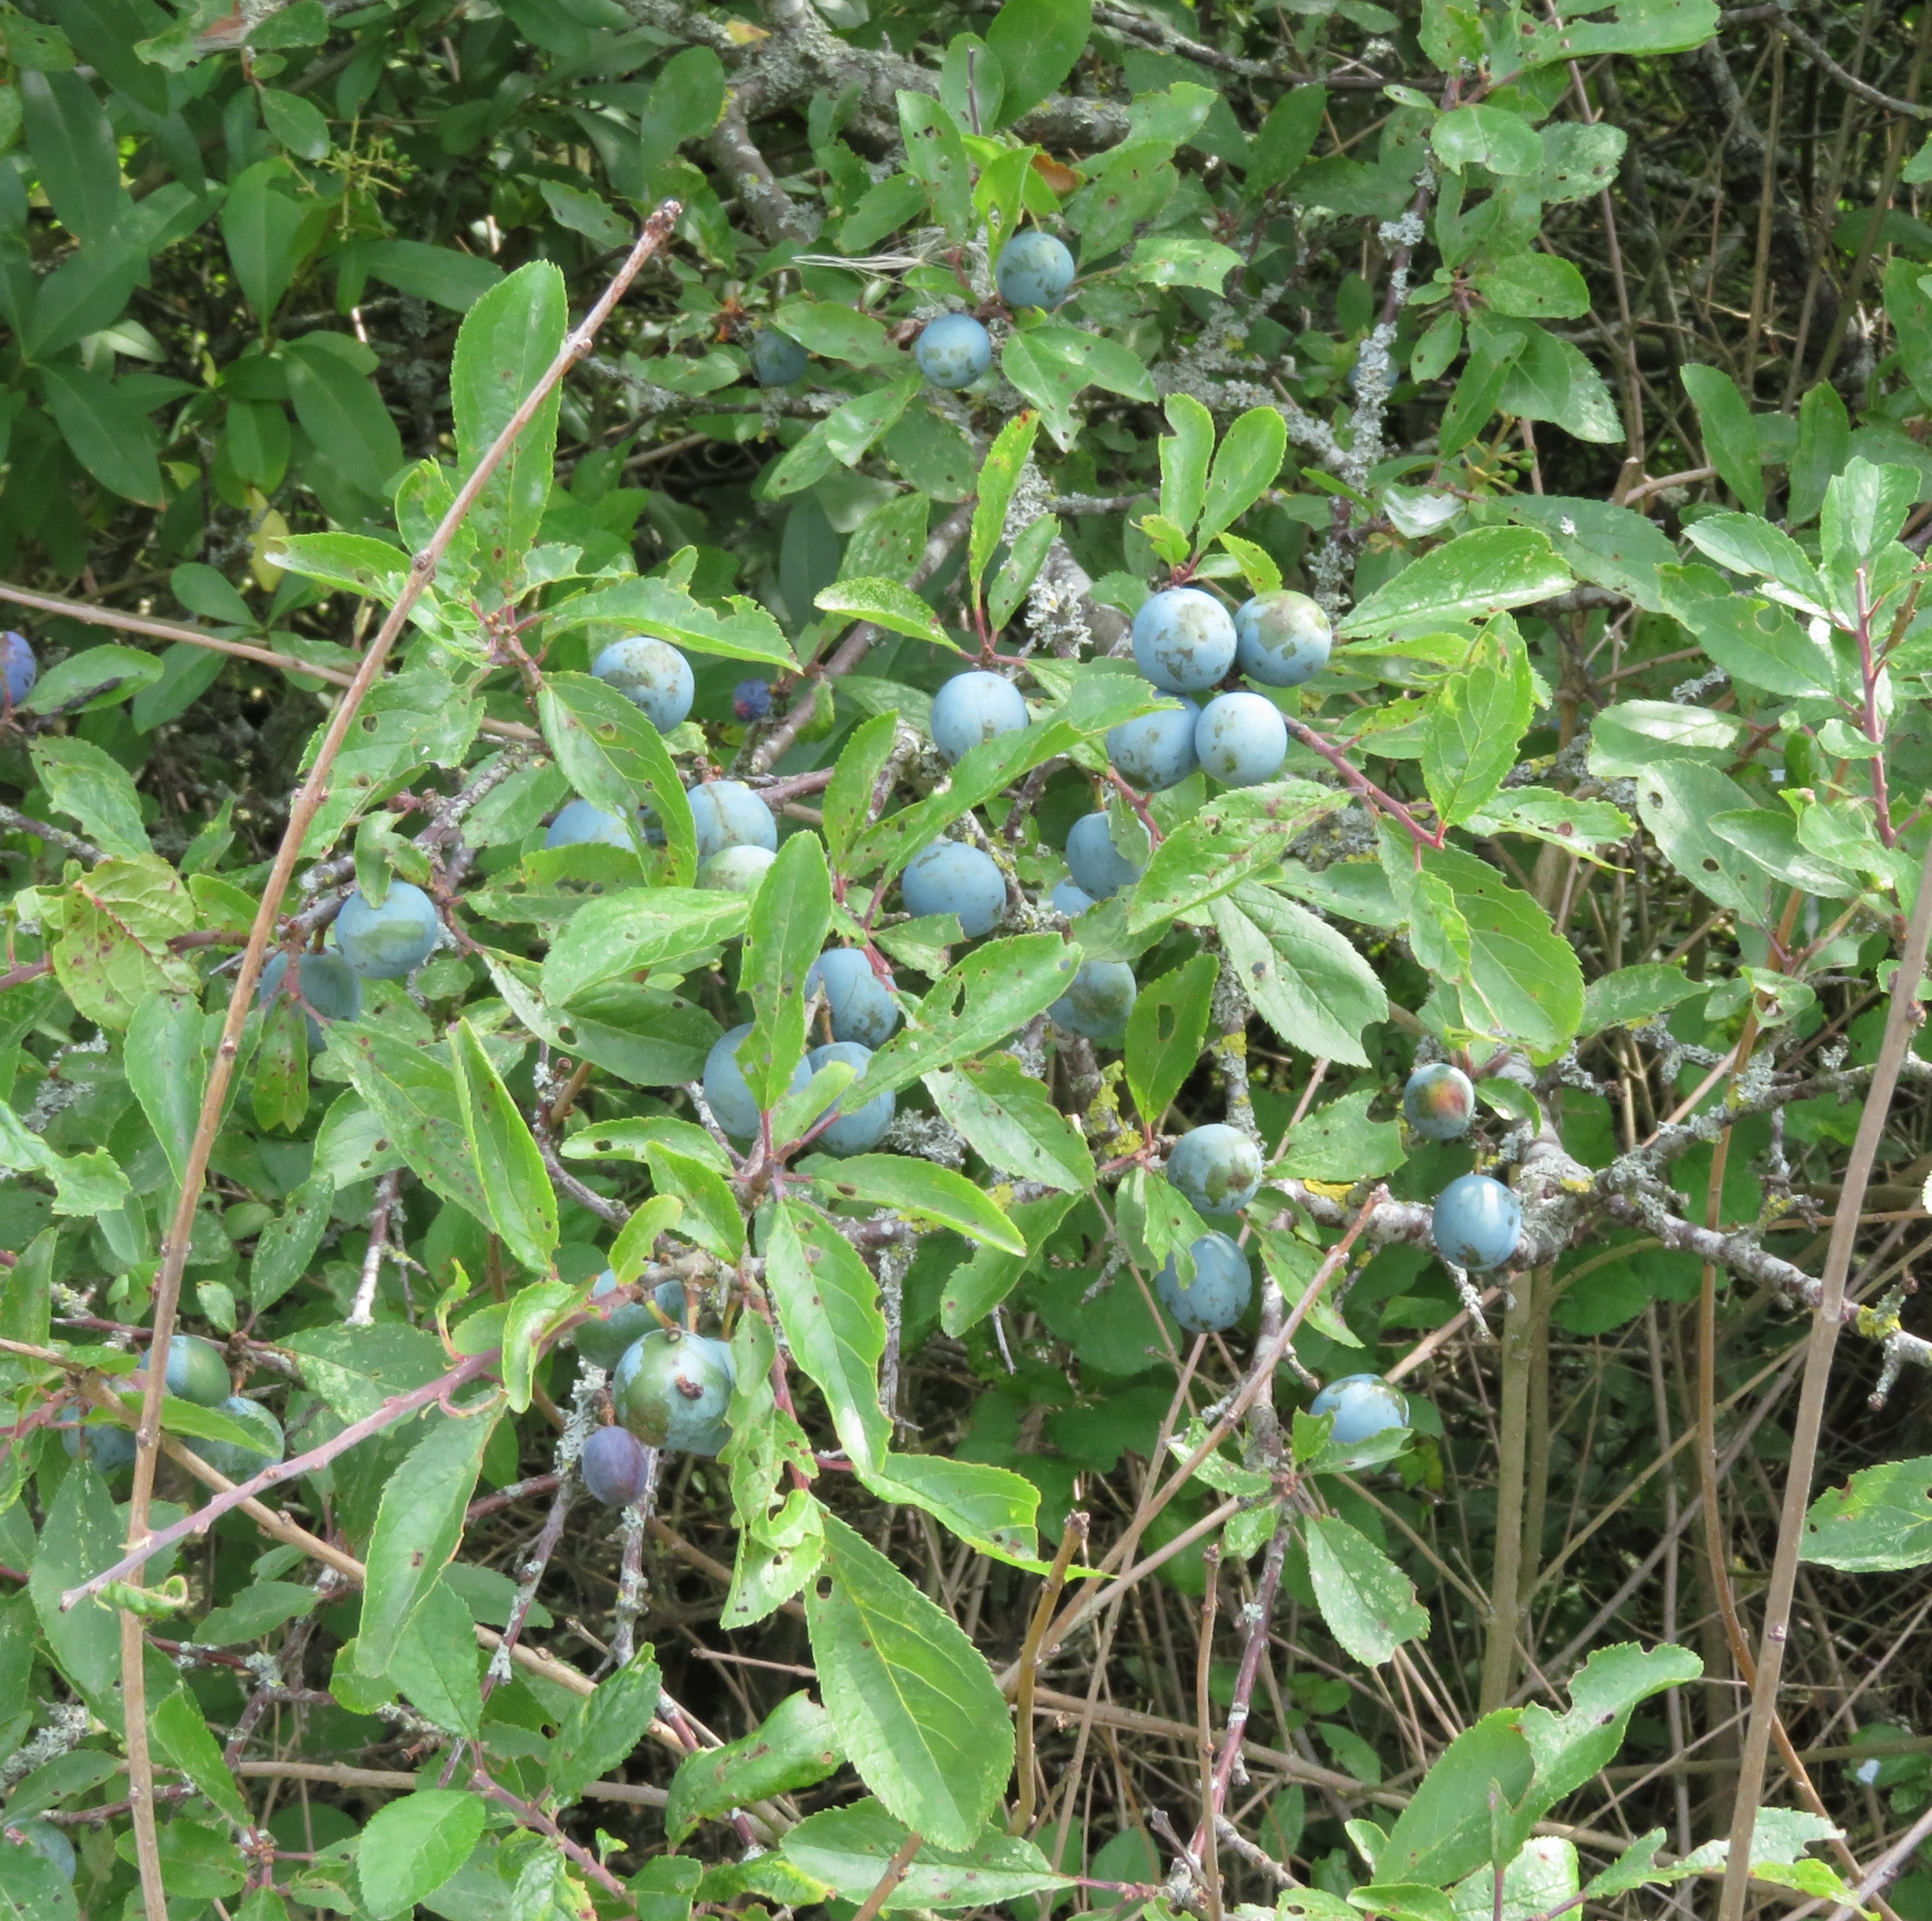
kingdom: Plantae
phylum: Tracheophyta
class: Magnoliopsida
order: Rosales
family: Rosaceae
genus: Prunus
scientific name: Prunus spinosa
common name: Slåen
